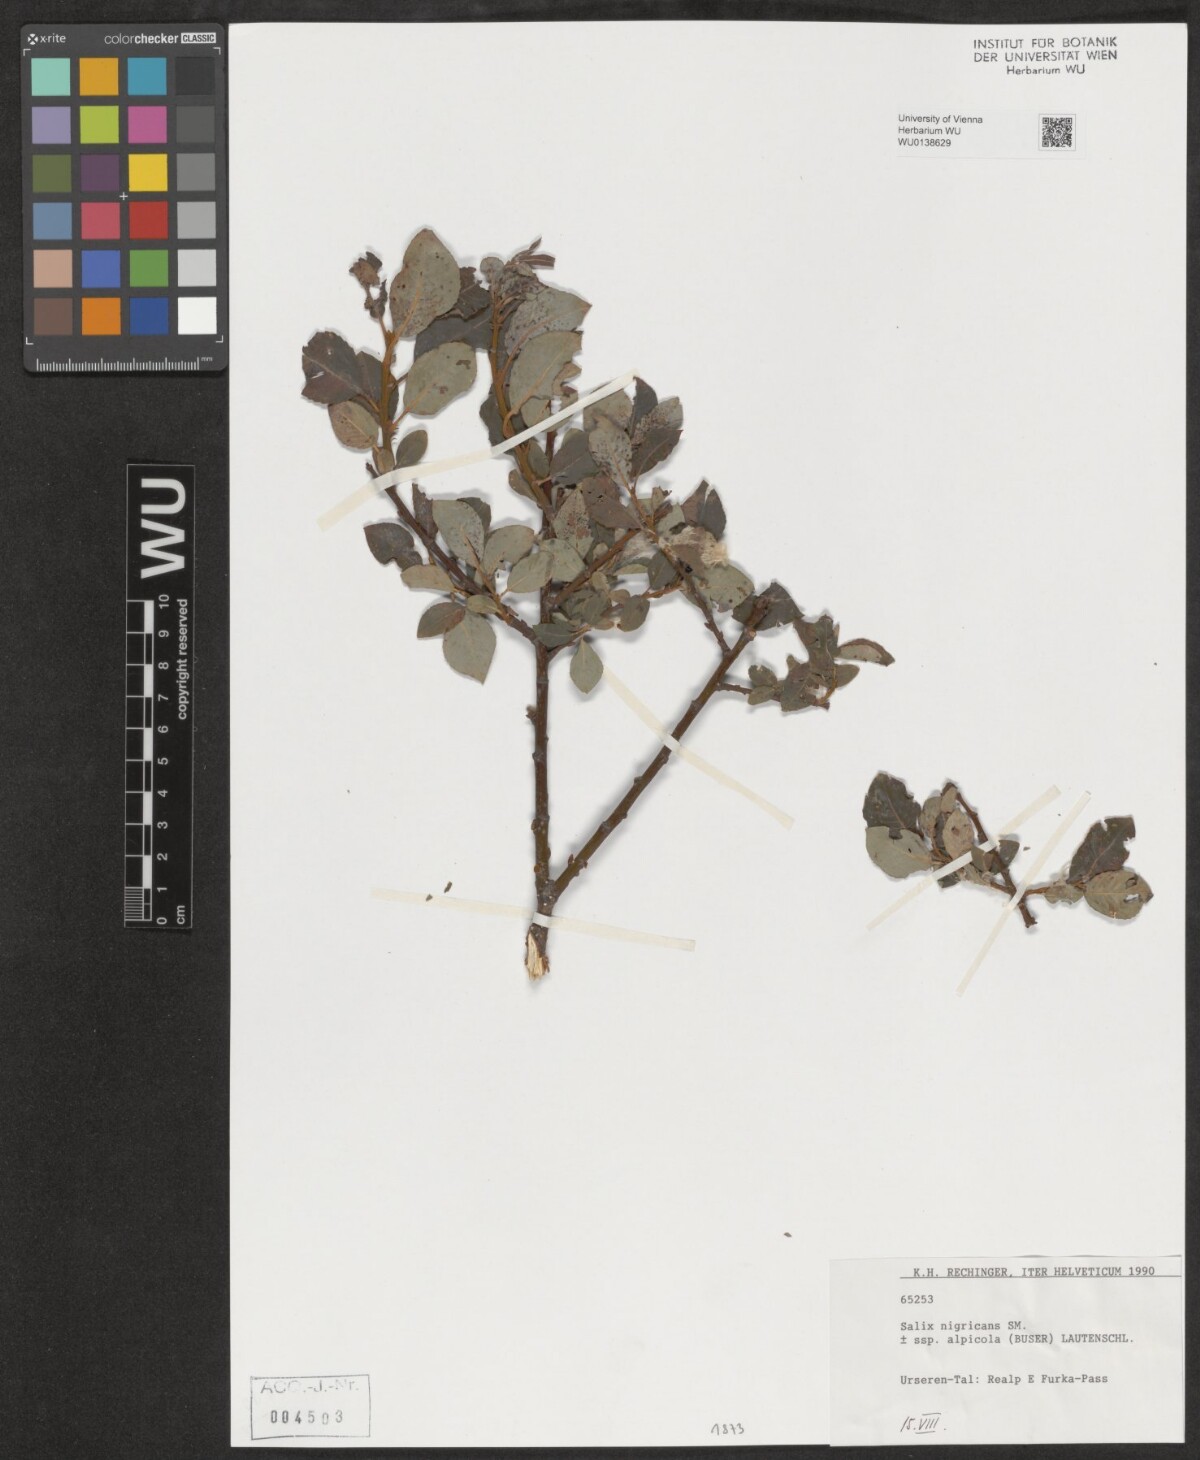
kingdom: Plantae
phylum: Tracheophyta
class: Magnoliopsida
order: Malpighiales
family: Salicaceae
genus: Salix
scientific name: Salix myrsinifolia
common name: Dark-leaved willow
